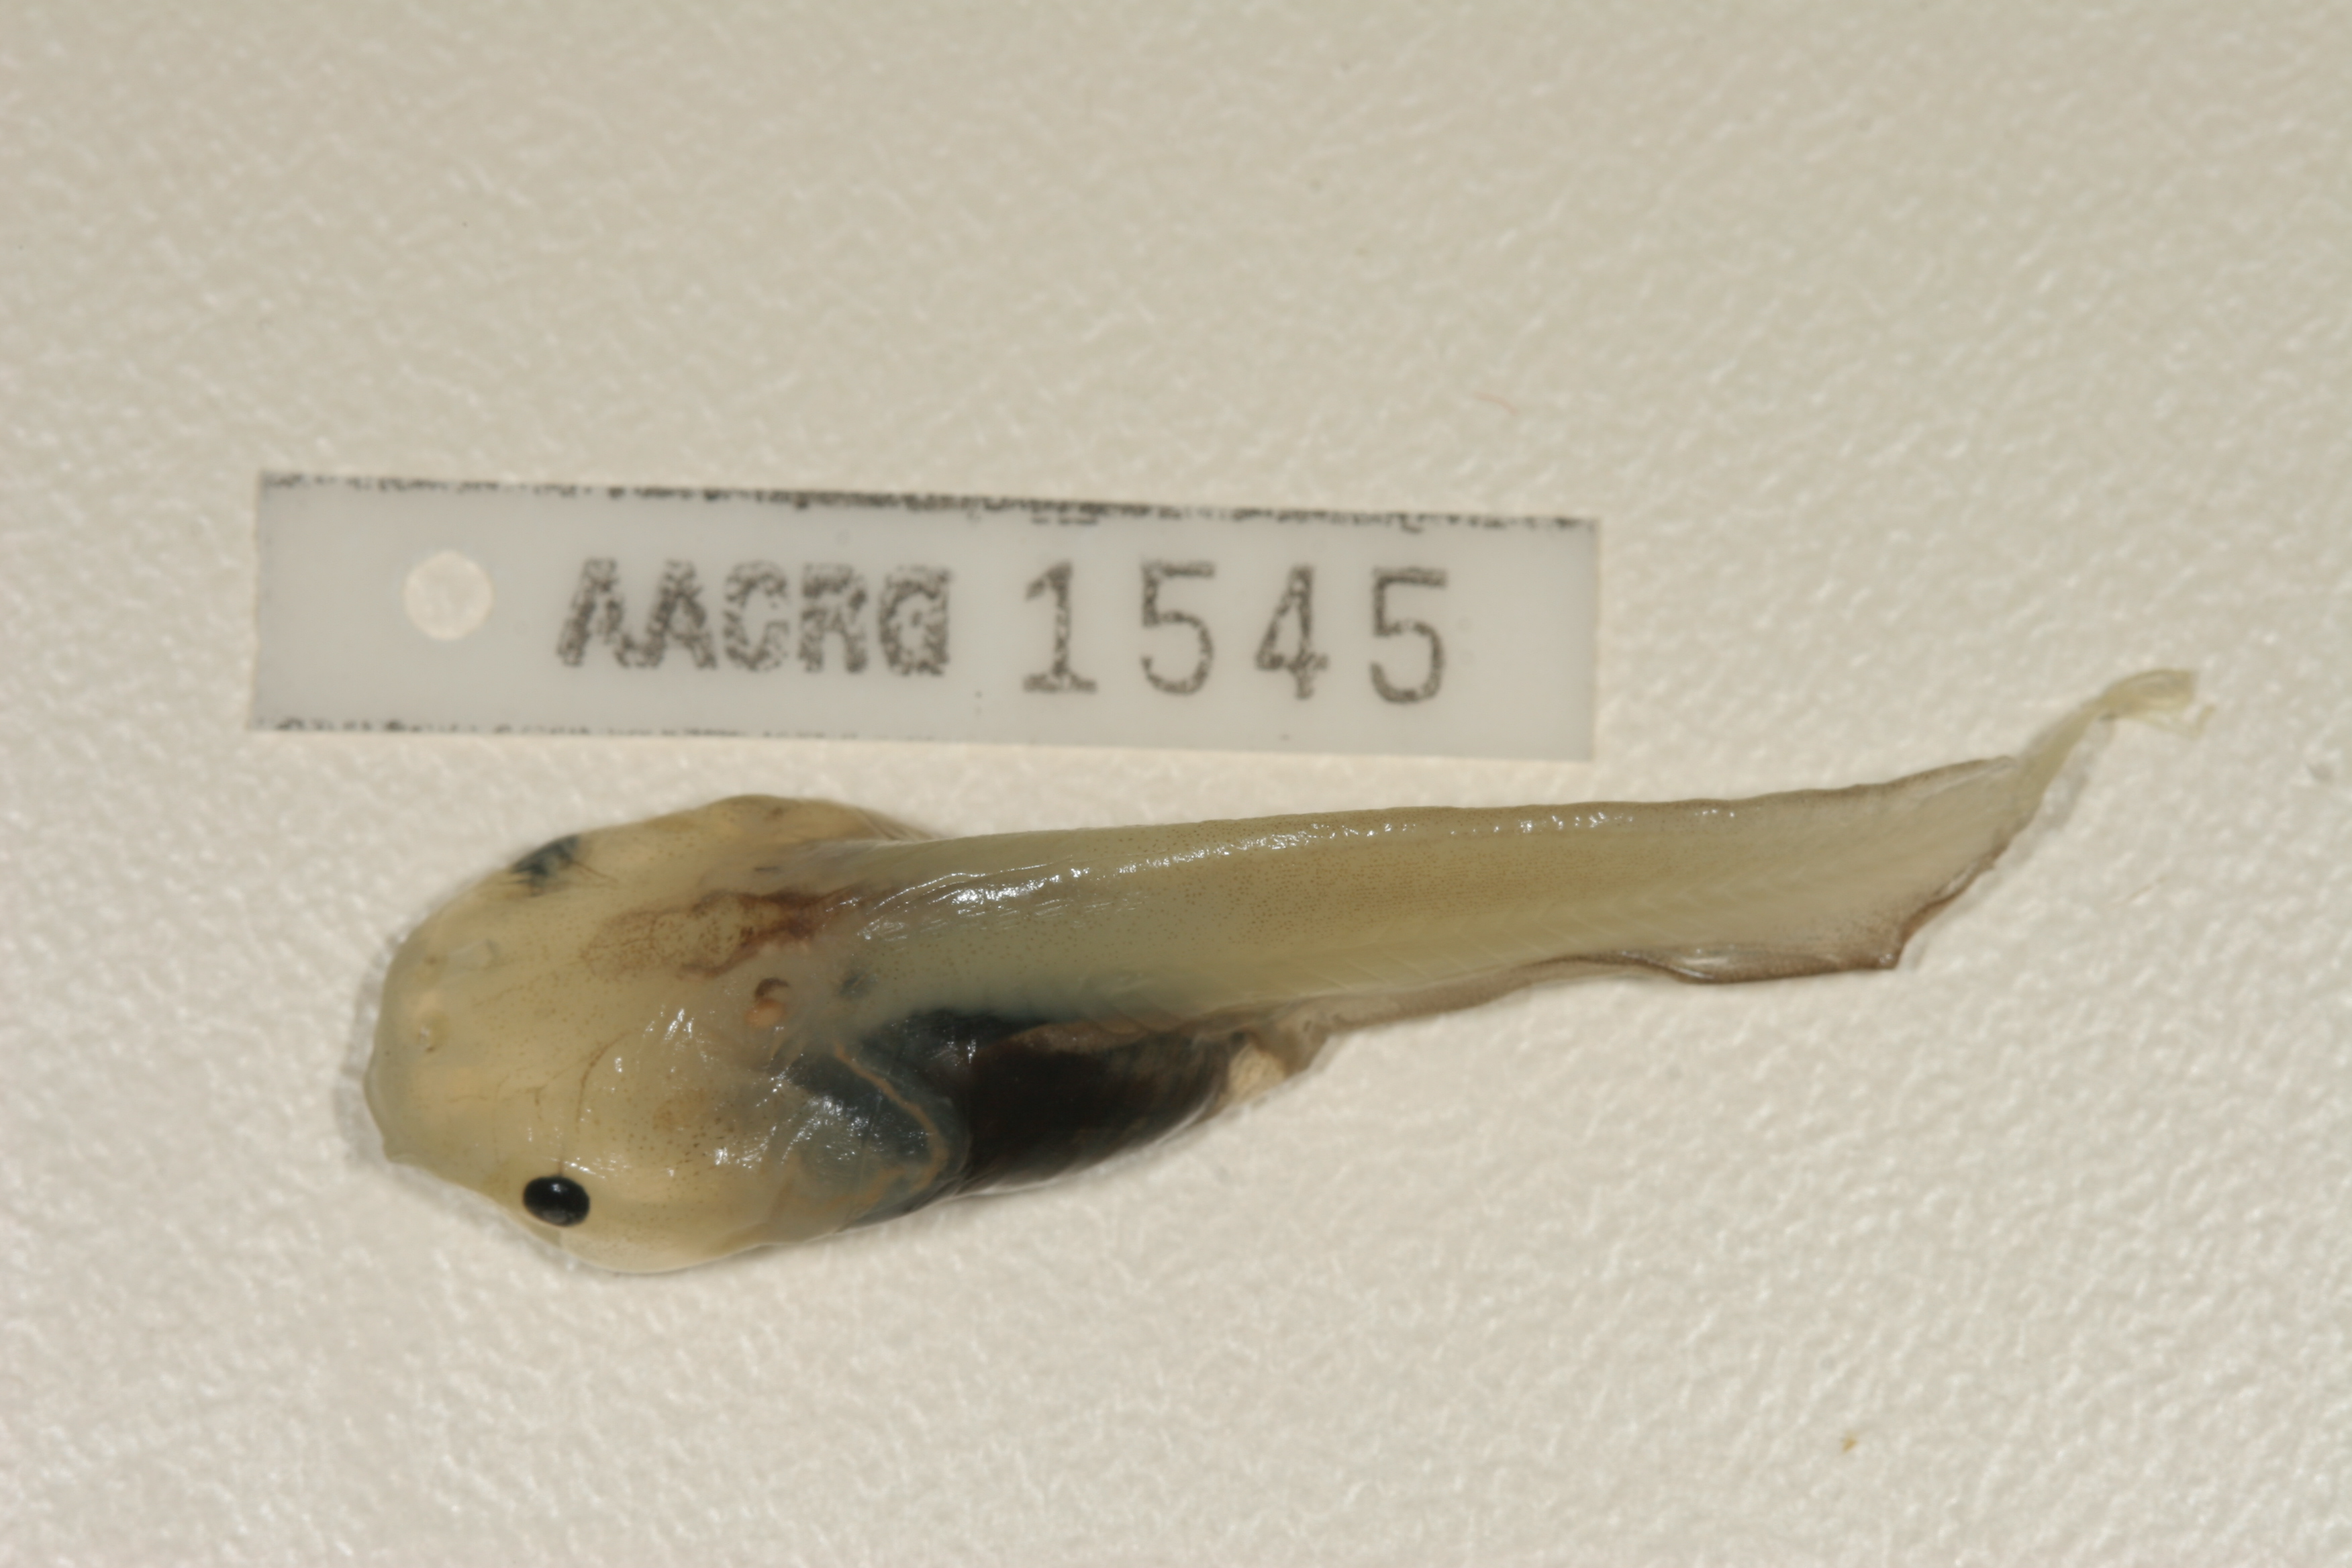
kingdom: Animalia
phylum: Chordata
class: Amphibia
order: Anura
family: Pipidae
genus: Xenopus
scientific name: Xenopus muelleri
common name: Muller's clawed frog
